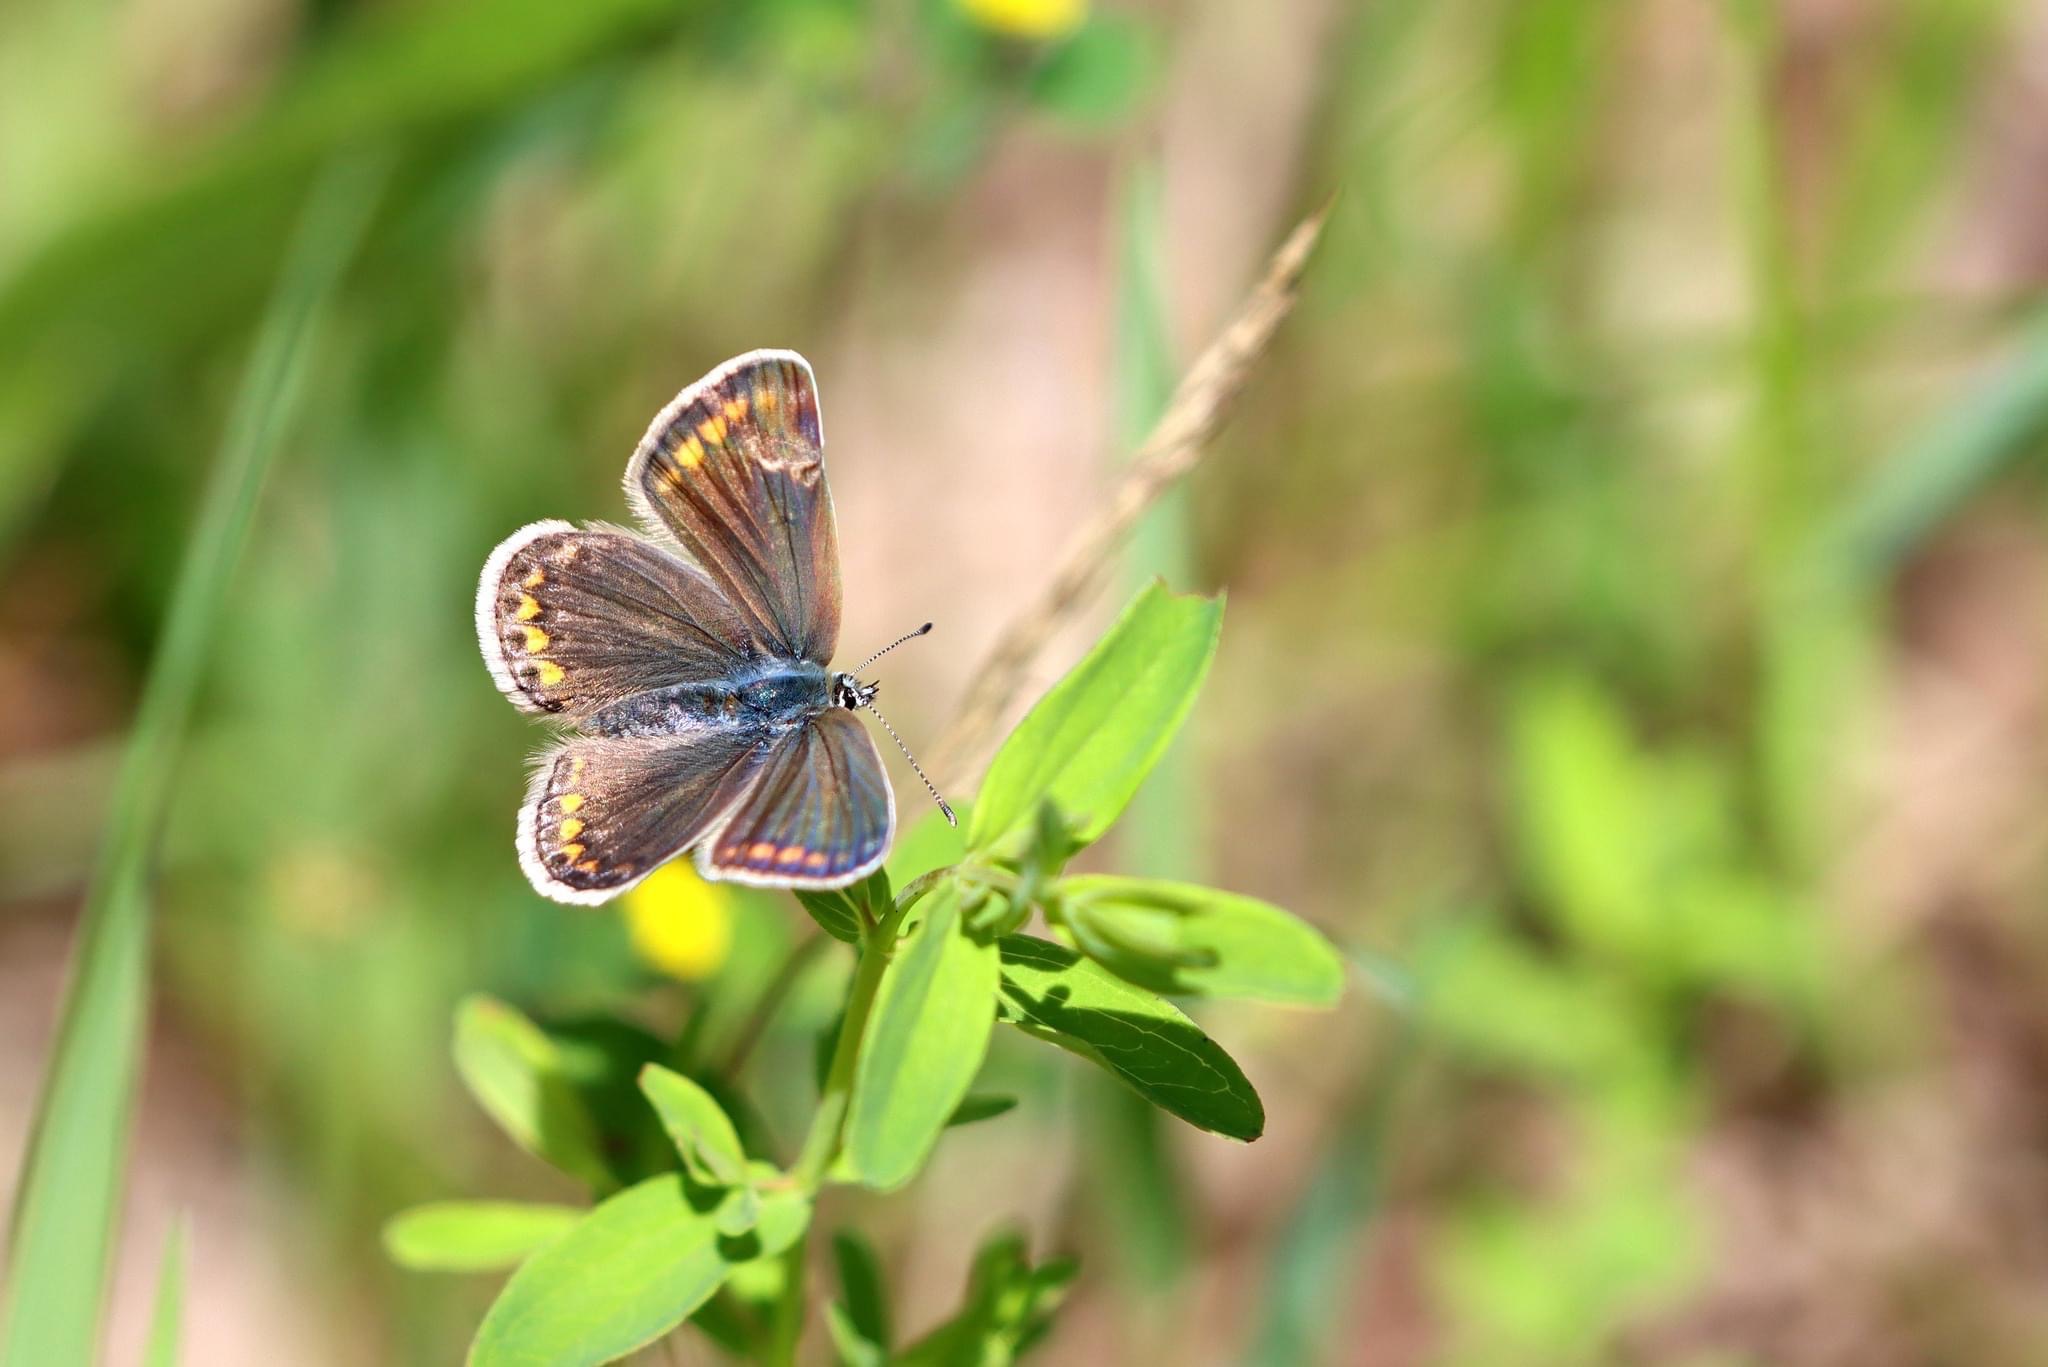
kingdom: Animalia
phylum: Arthropoda
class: Insecta
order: Lepidoptera
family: Lycaenidae
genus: Polyommatus
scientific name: Polyommatus icarus
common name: Almindelig blåfugl
